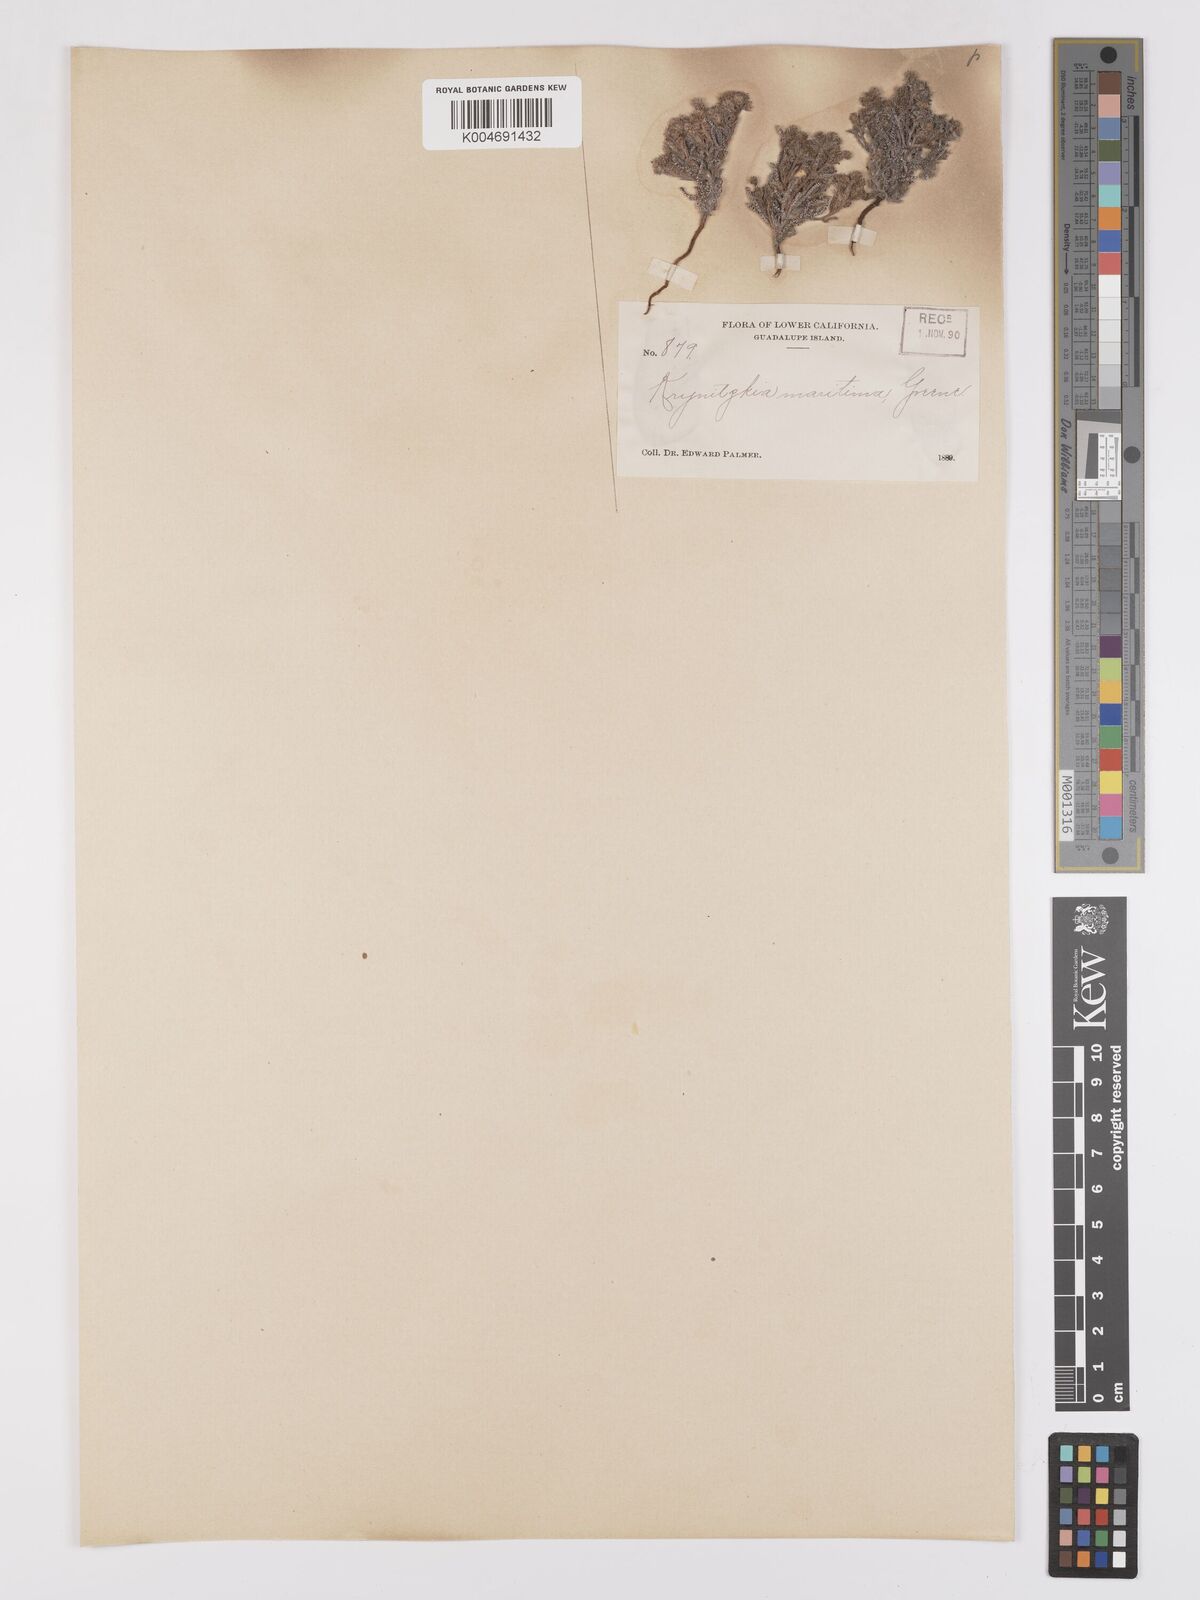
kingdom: Plantae
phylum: Tracheophyta
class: Magnoliopsida
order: Boraginales
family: Boraginaceae
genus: Cryptantha
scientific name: Cryptantha maritima
